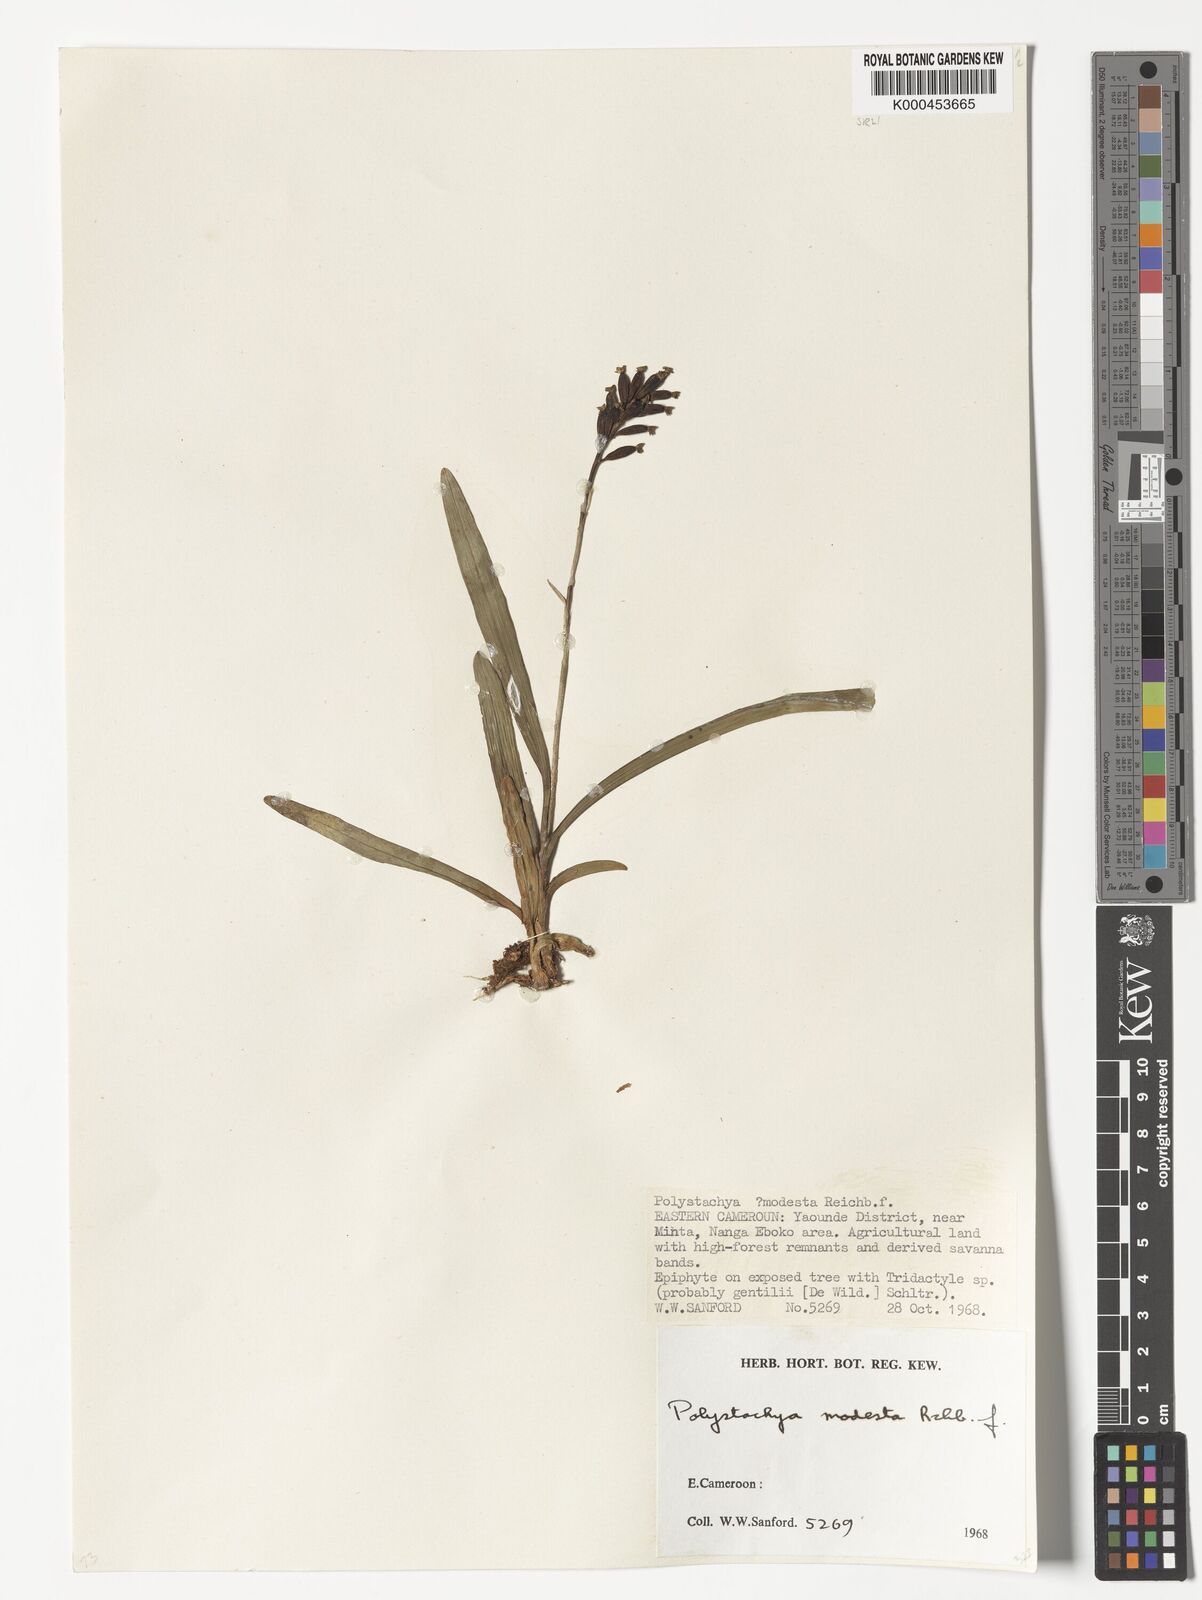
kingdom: Plantae
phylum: Tracheophyta
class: Liliopsida
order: Asparagales
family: Orchidaceae
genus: Polystachya
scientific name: Polystachya modesta
